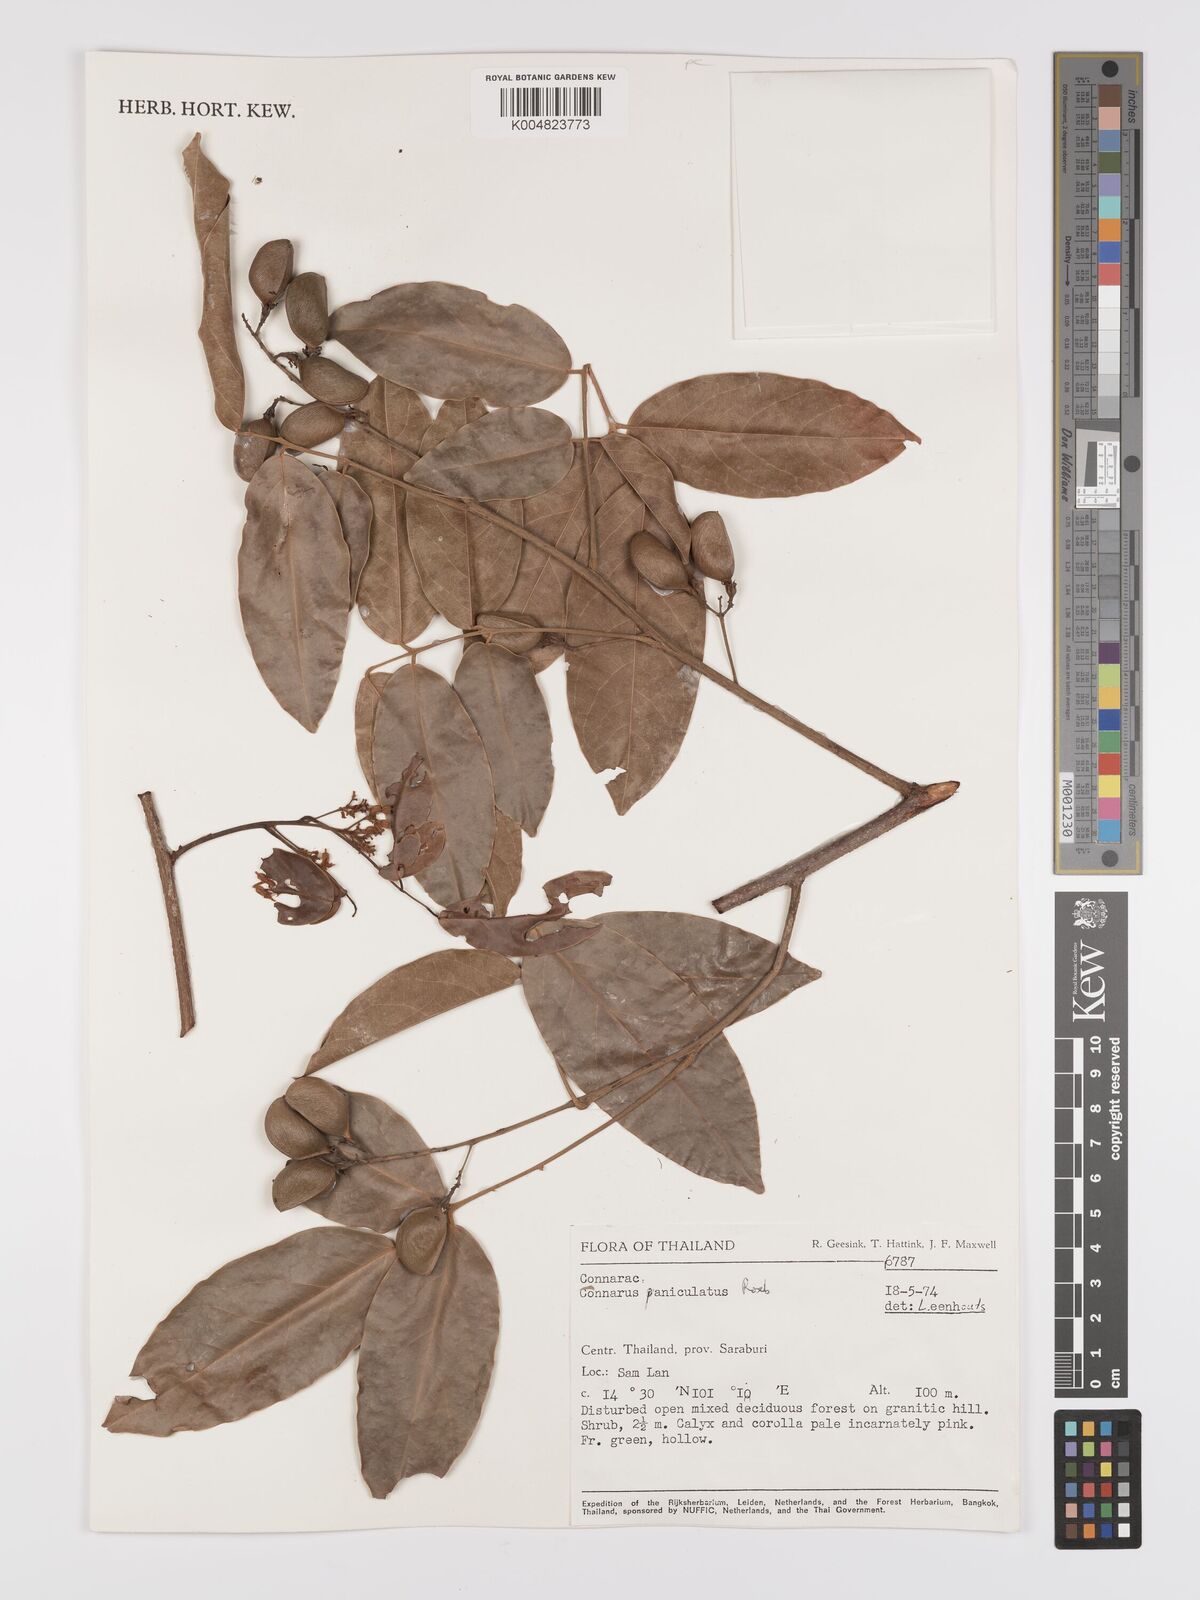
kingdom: Plantae
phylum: Tracheophyta
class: Magnoliopsida
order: Oxalidales
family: Connaraceae
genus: Connarus
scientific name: Connarus paniculatus
